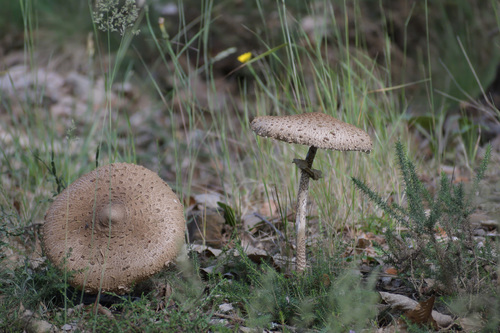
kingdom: Fungi
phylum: Basidiomycota
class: Agaricomycetes
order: Agaricales
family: Agaricaceae
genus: Macrolepiota
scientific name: Macrolepiota procera
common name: Parasol
